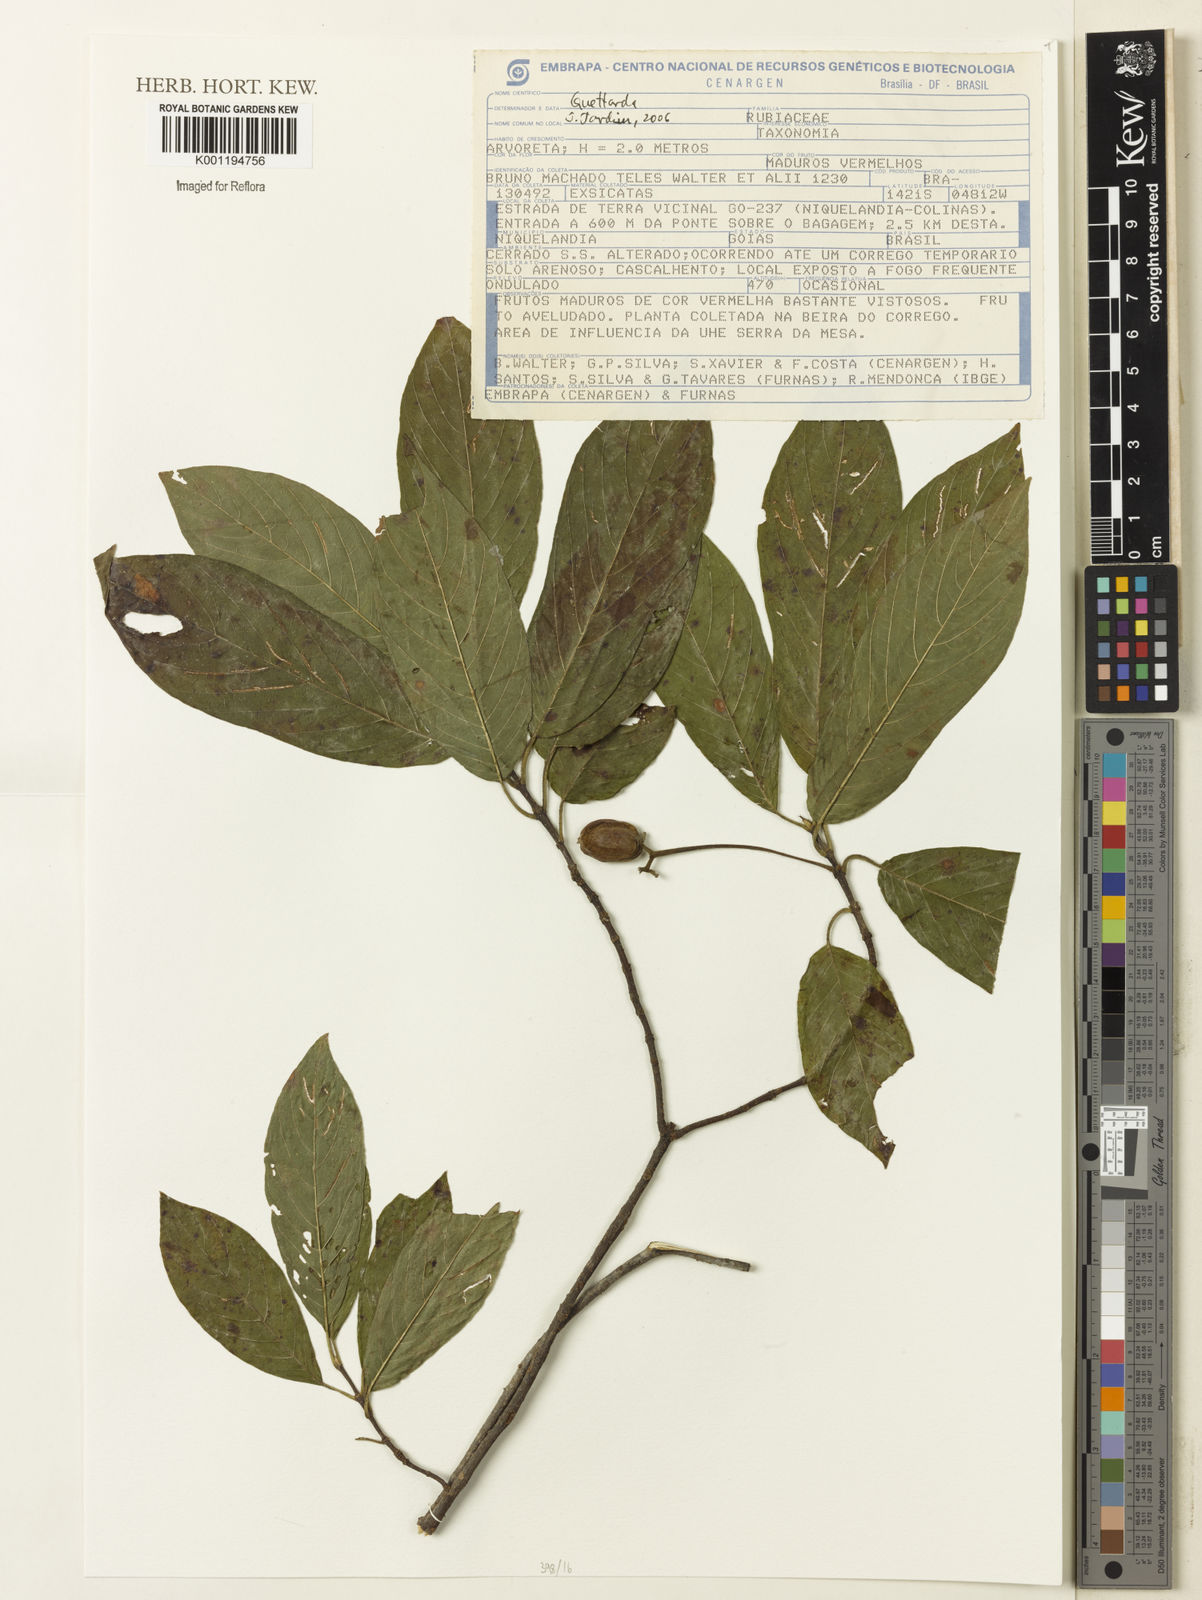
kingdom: Plantae
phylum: Tracheophyta
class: Magnoliopsida
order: Gentianales
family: Rubiaceae
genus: Guettarda
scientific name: Guettarda
